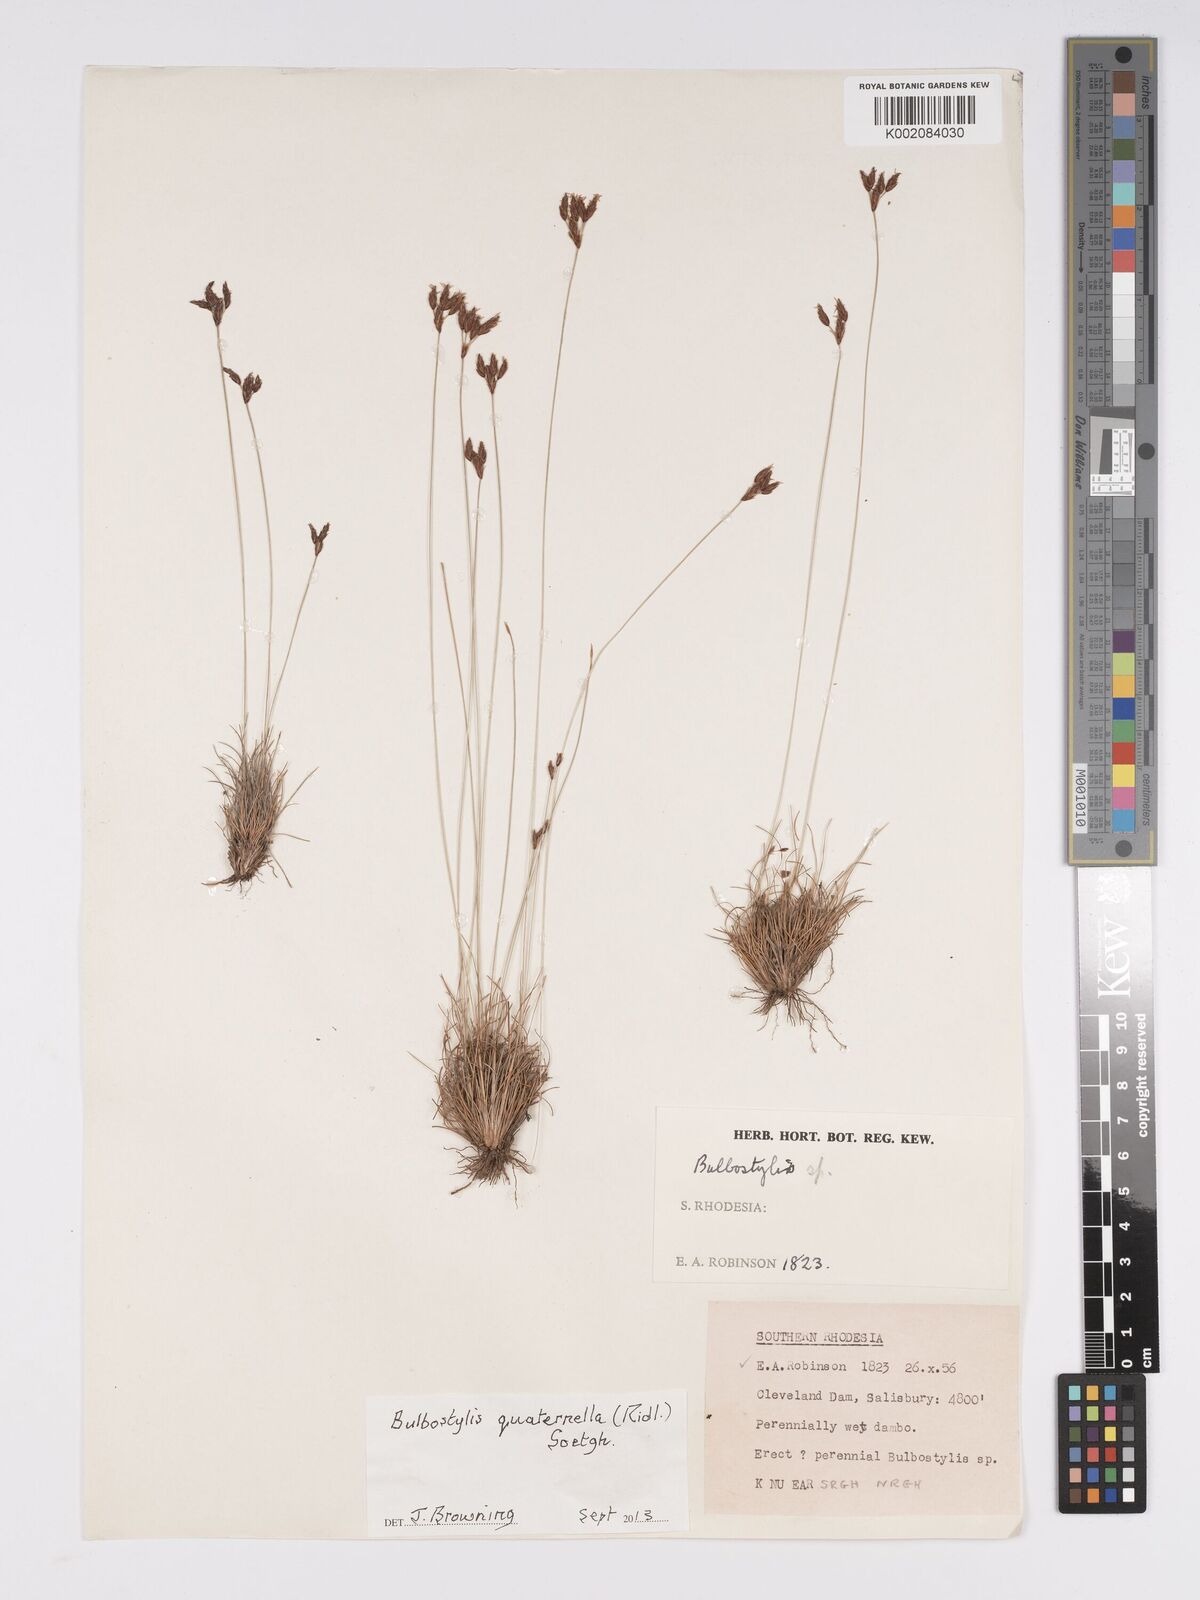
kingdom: Plantae
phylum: Tracheophyta
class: Liliopsida
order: Poales
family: Cyperaceae
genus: Bulbostylis
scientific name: Bulbostylis quaternella
